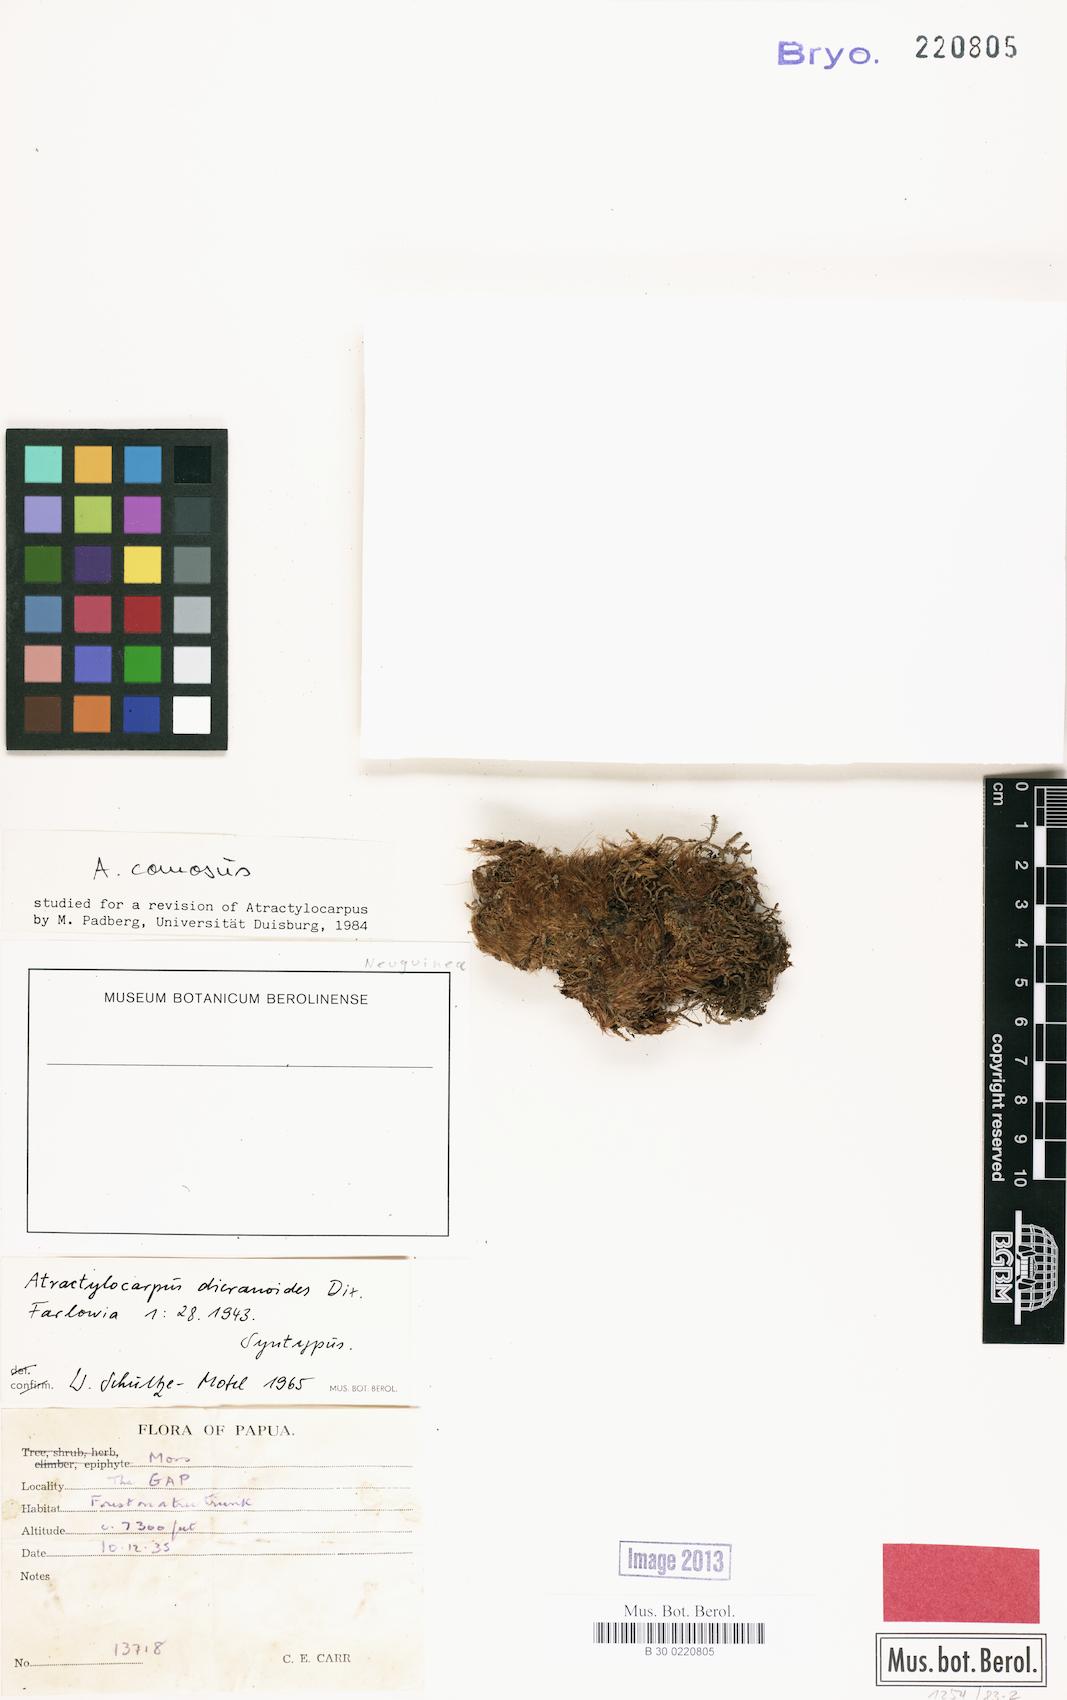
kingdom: Plantae
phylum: Bryophyta
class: Bryopsida
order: Dicranales
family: Leucobryaceae
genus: Atractylocarpus
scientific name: Atractylocarpus novoguinensis
